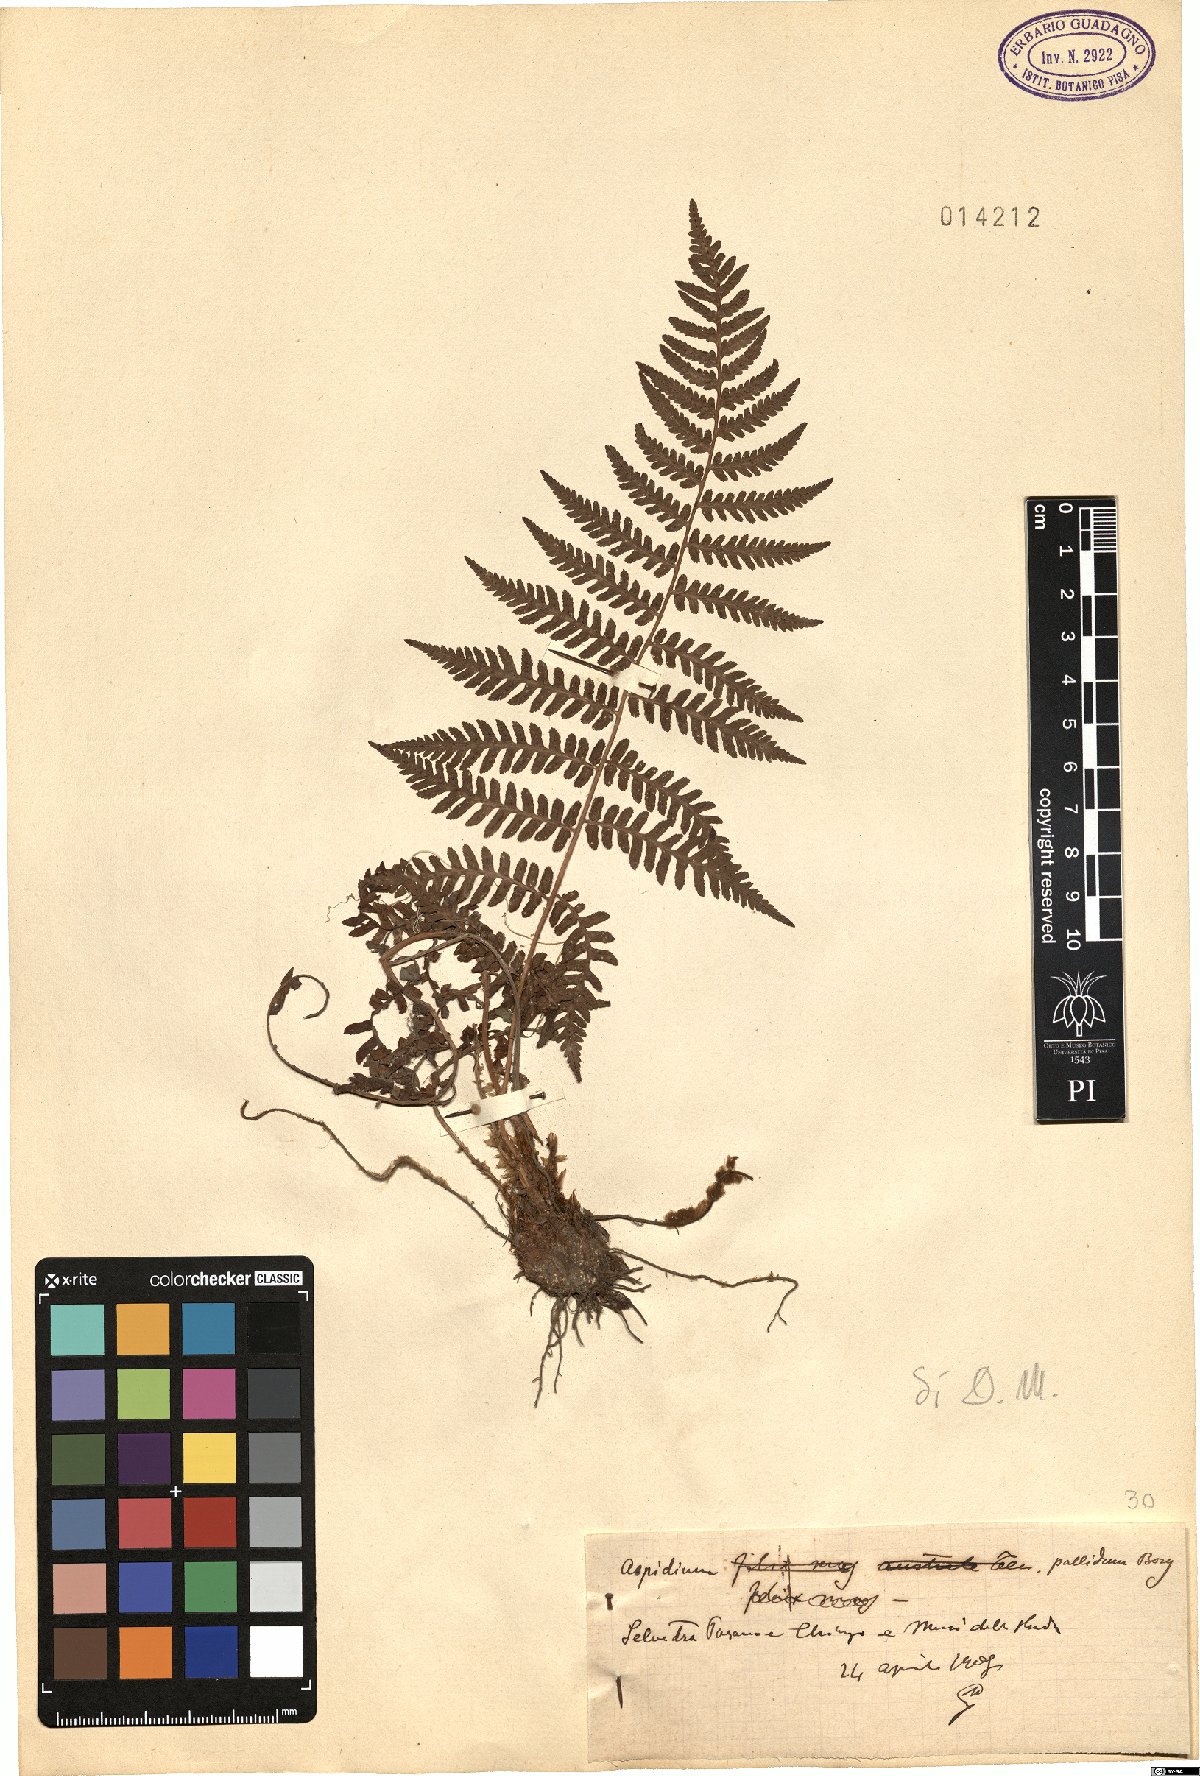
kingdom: Plantae
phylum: Tracheophyta
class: Polypodiopsida
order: Polypodiales
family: Dryopteridaceae
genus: Dryopteris
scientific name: Dryopteris pallida
